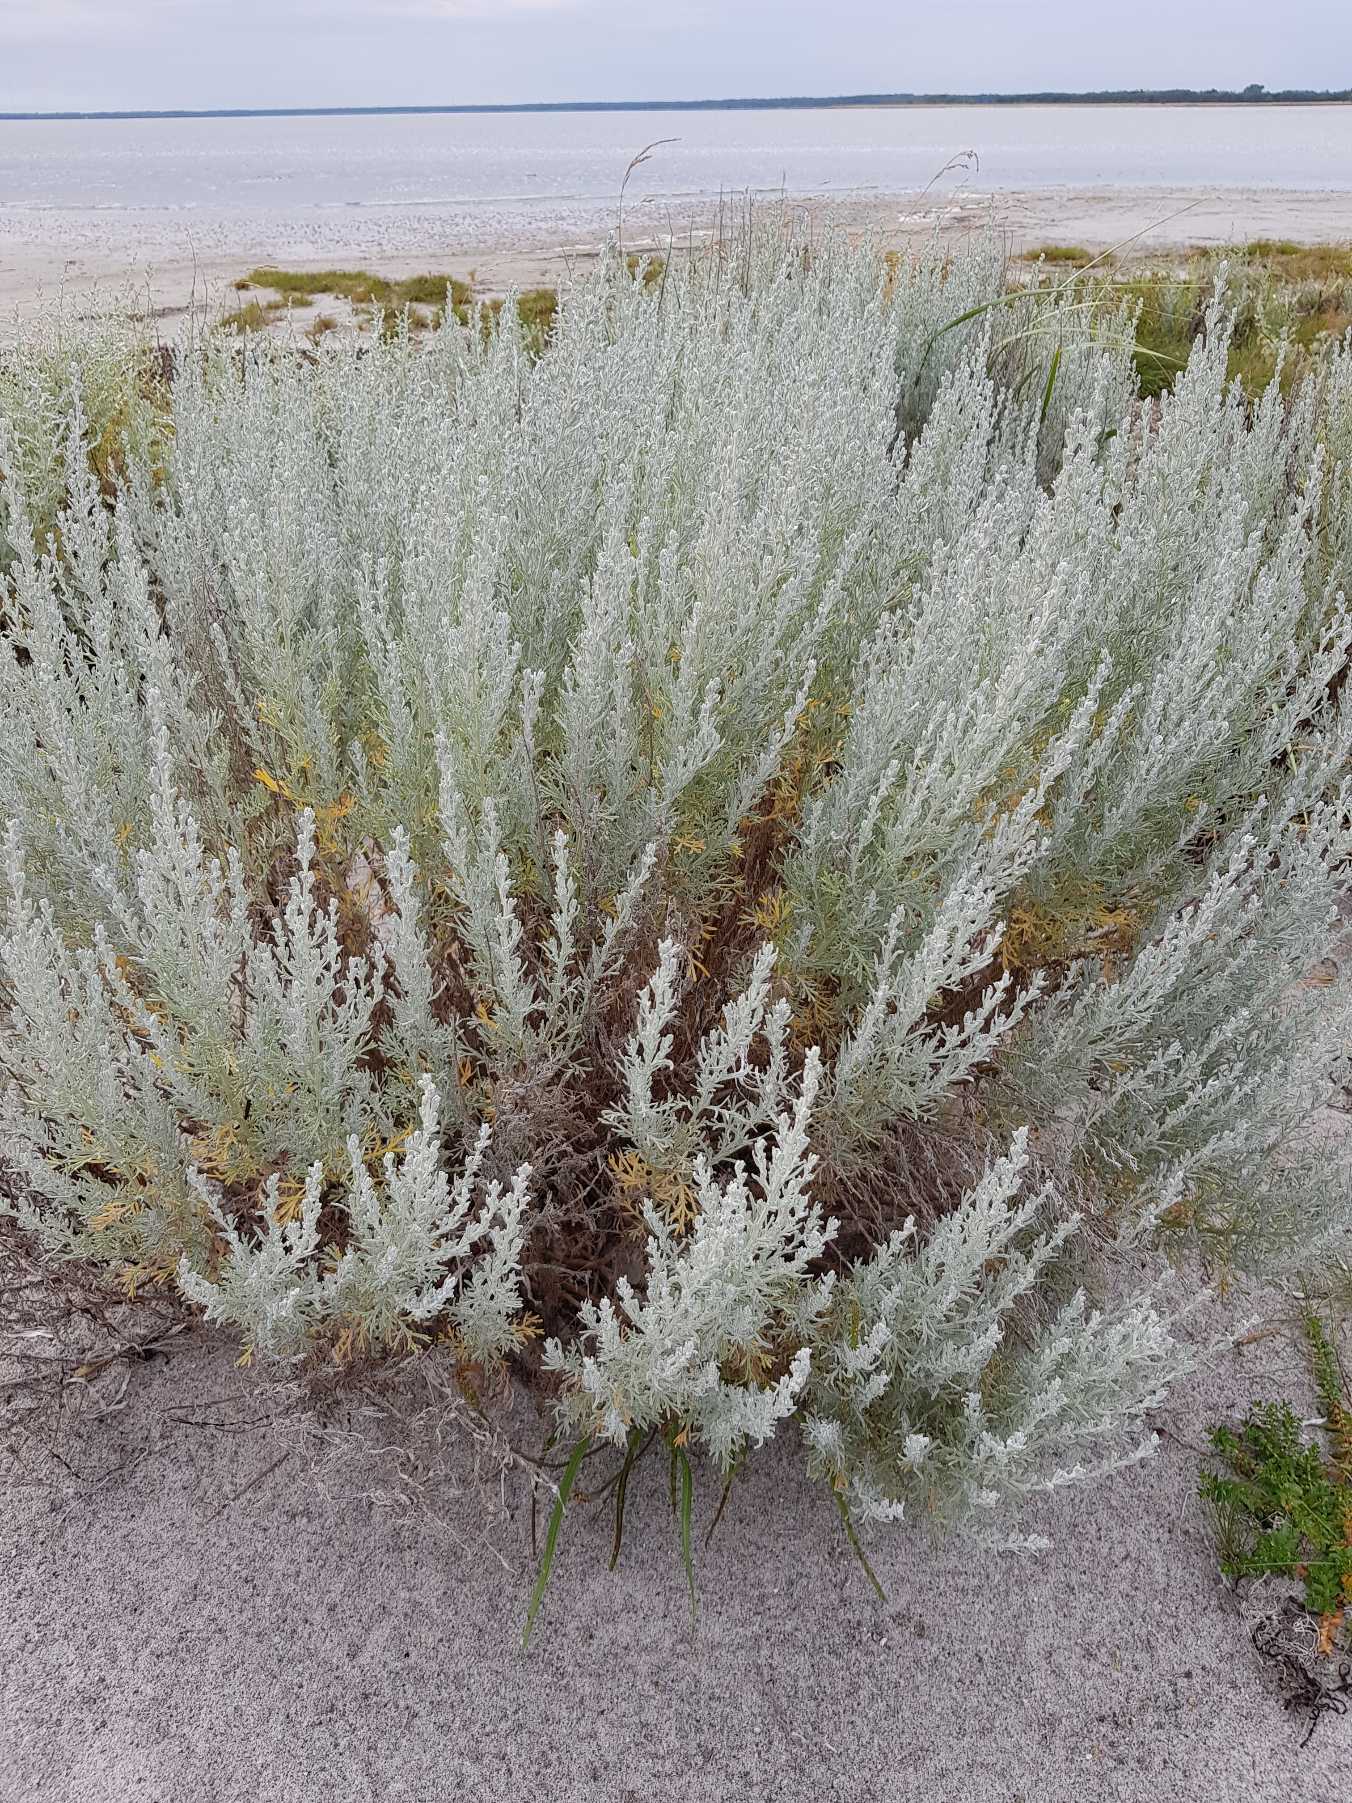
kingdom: Plantae
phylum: Tracheophyta
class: Magnoliopsida
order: Asterales
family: Asteraceae
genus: Artemisia
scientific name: Artemisia maritima
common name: Strandmalurt
